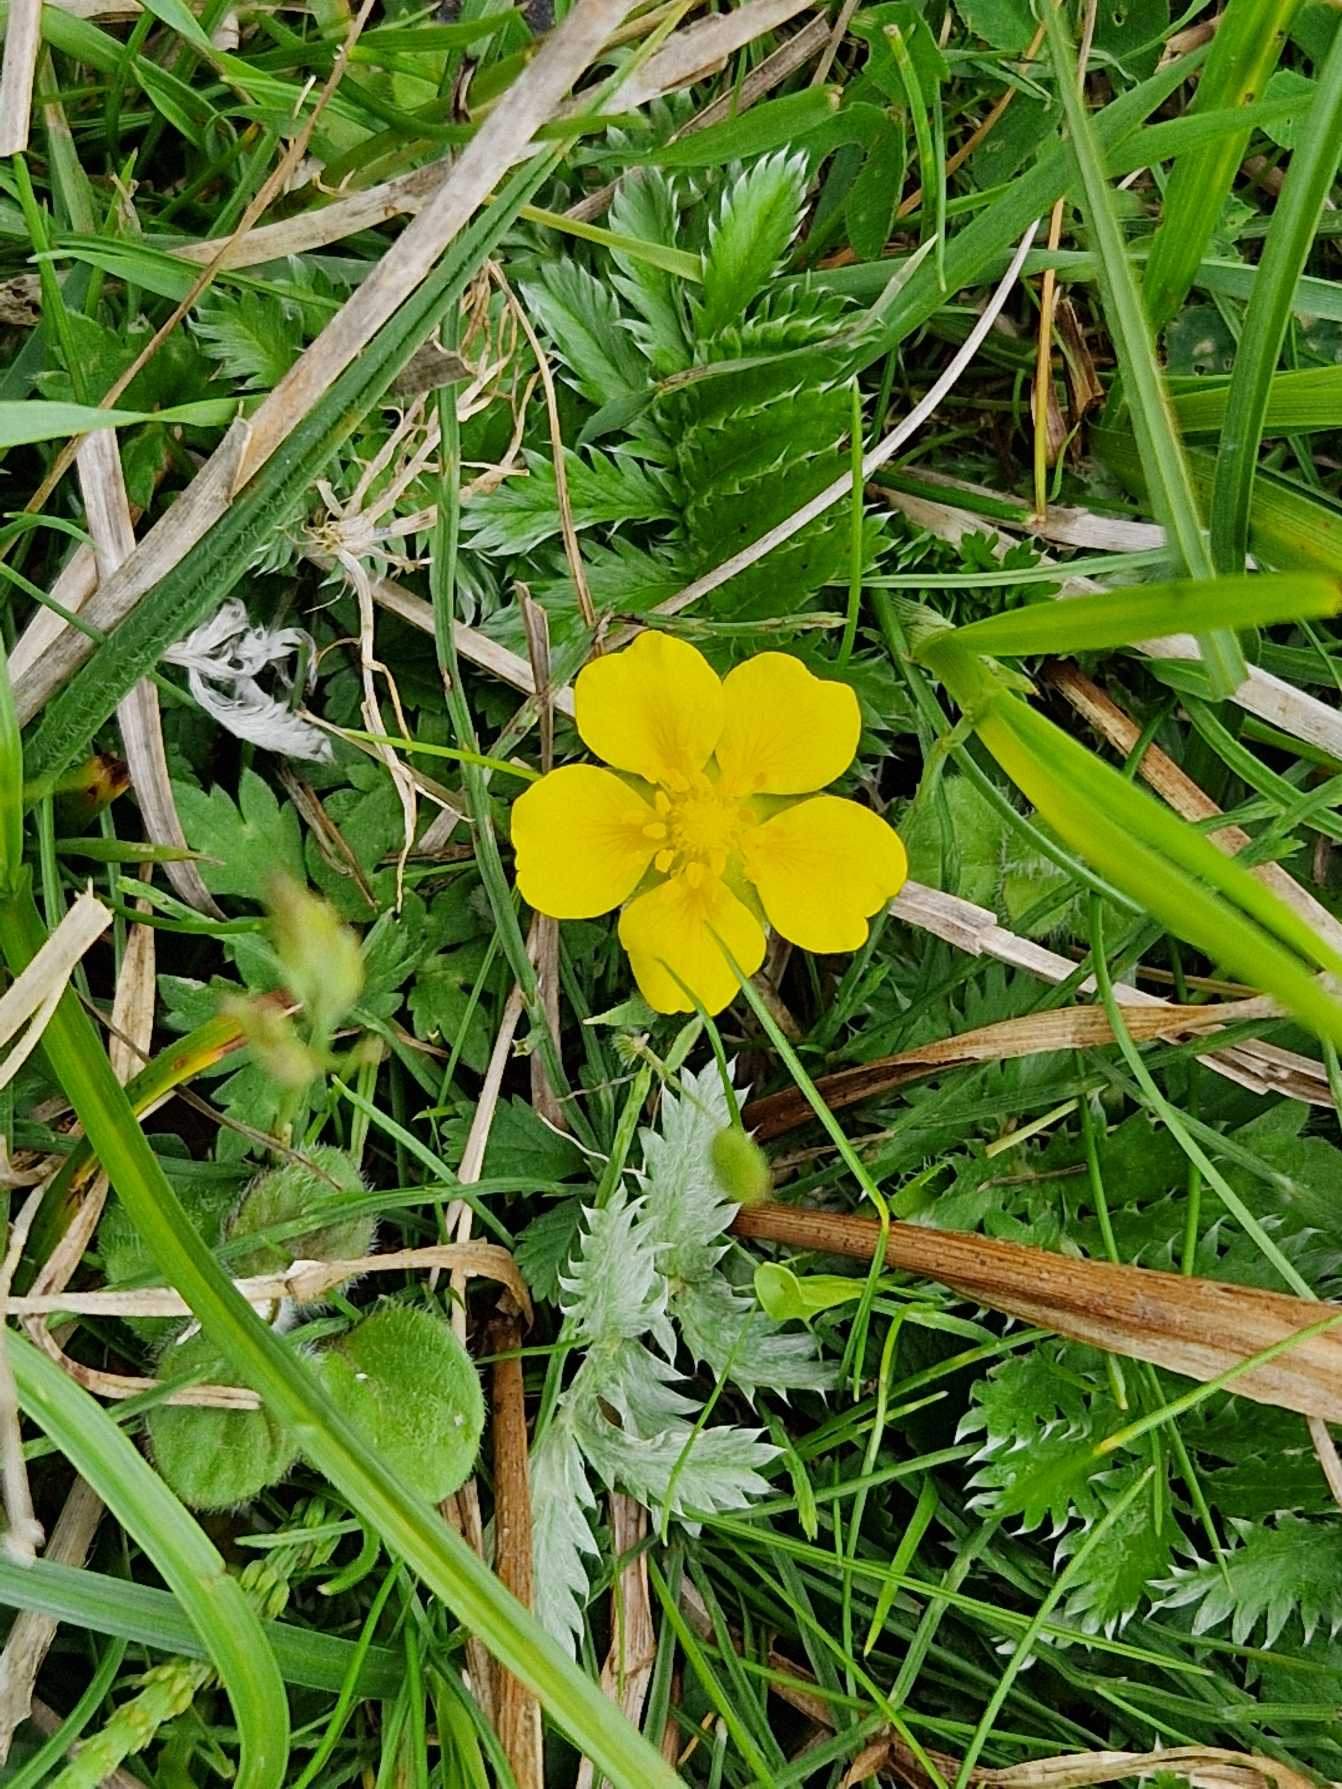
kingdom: Plantae
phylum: Tracheophyta
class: Magnoliopsida
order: Rosales
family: Rosaceae
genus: Argentina
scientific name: Argentina anserina
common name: Gåsepotentil
